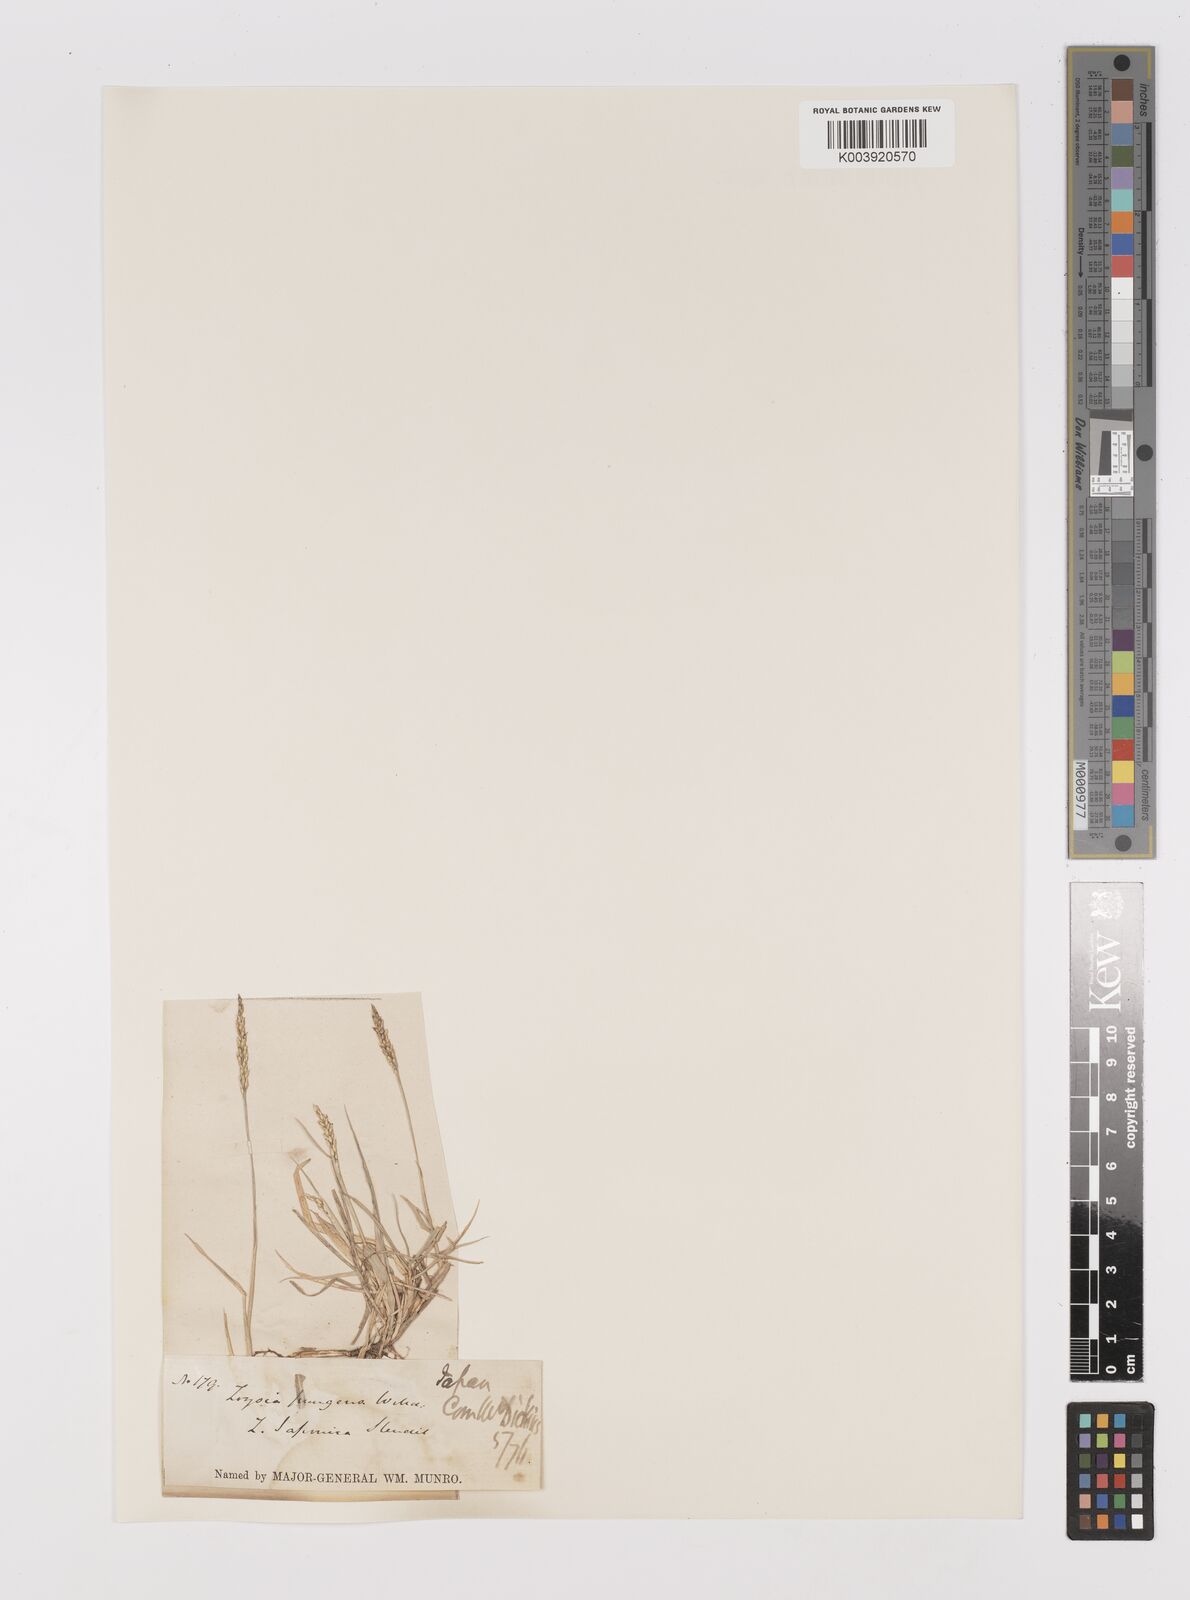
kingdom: Plantae
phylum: Tracheophyta
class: Liliopsida
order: Poales
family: Poaceae
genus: Zoysia
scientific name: Zoysia japonica
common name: Korean lawngrass
